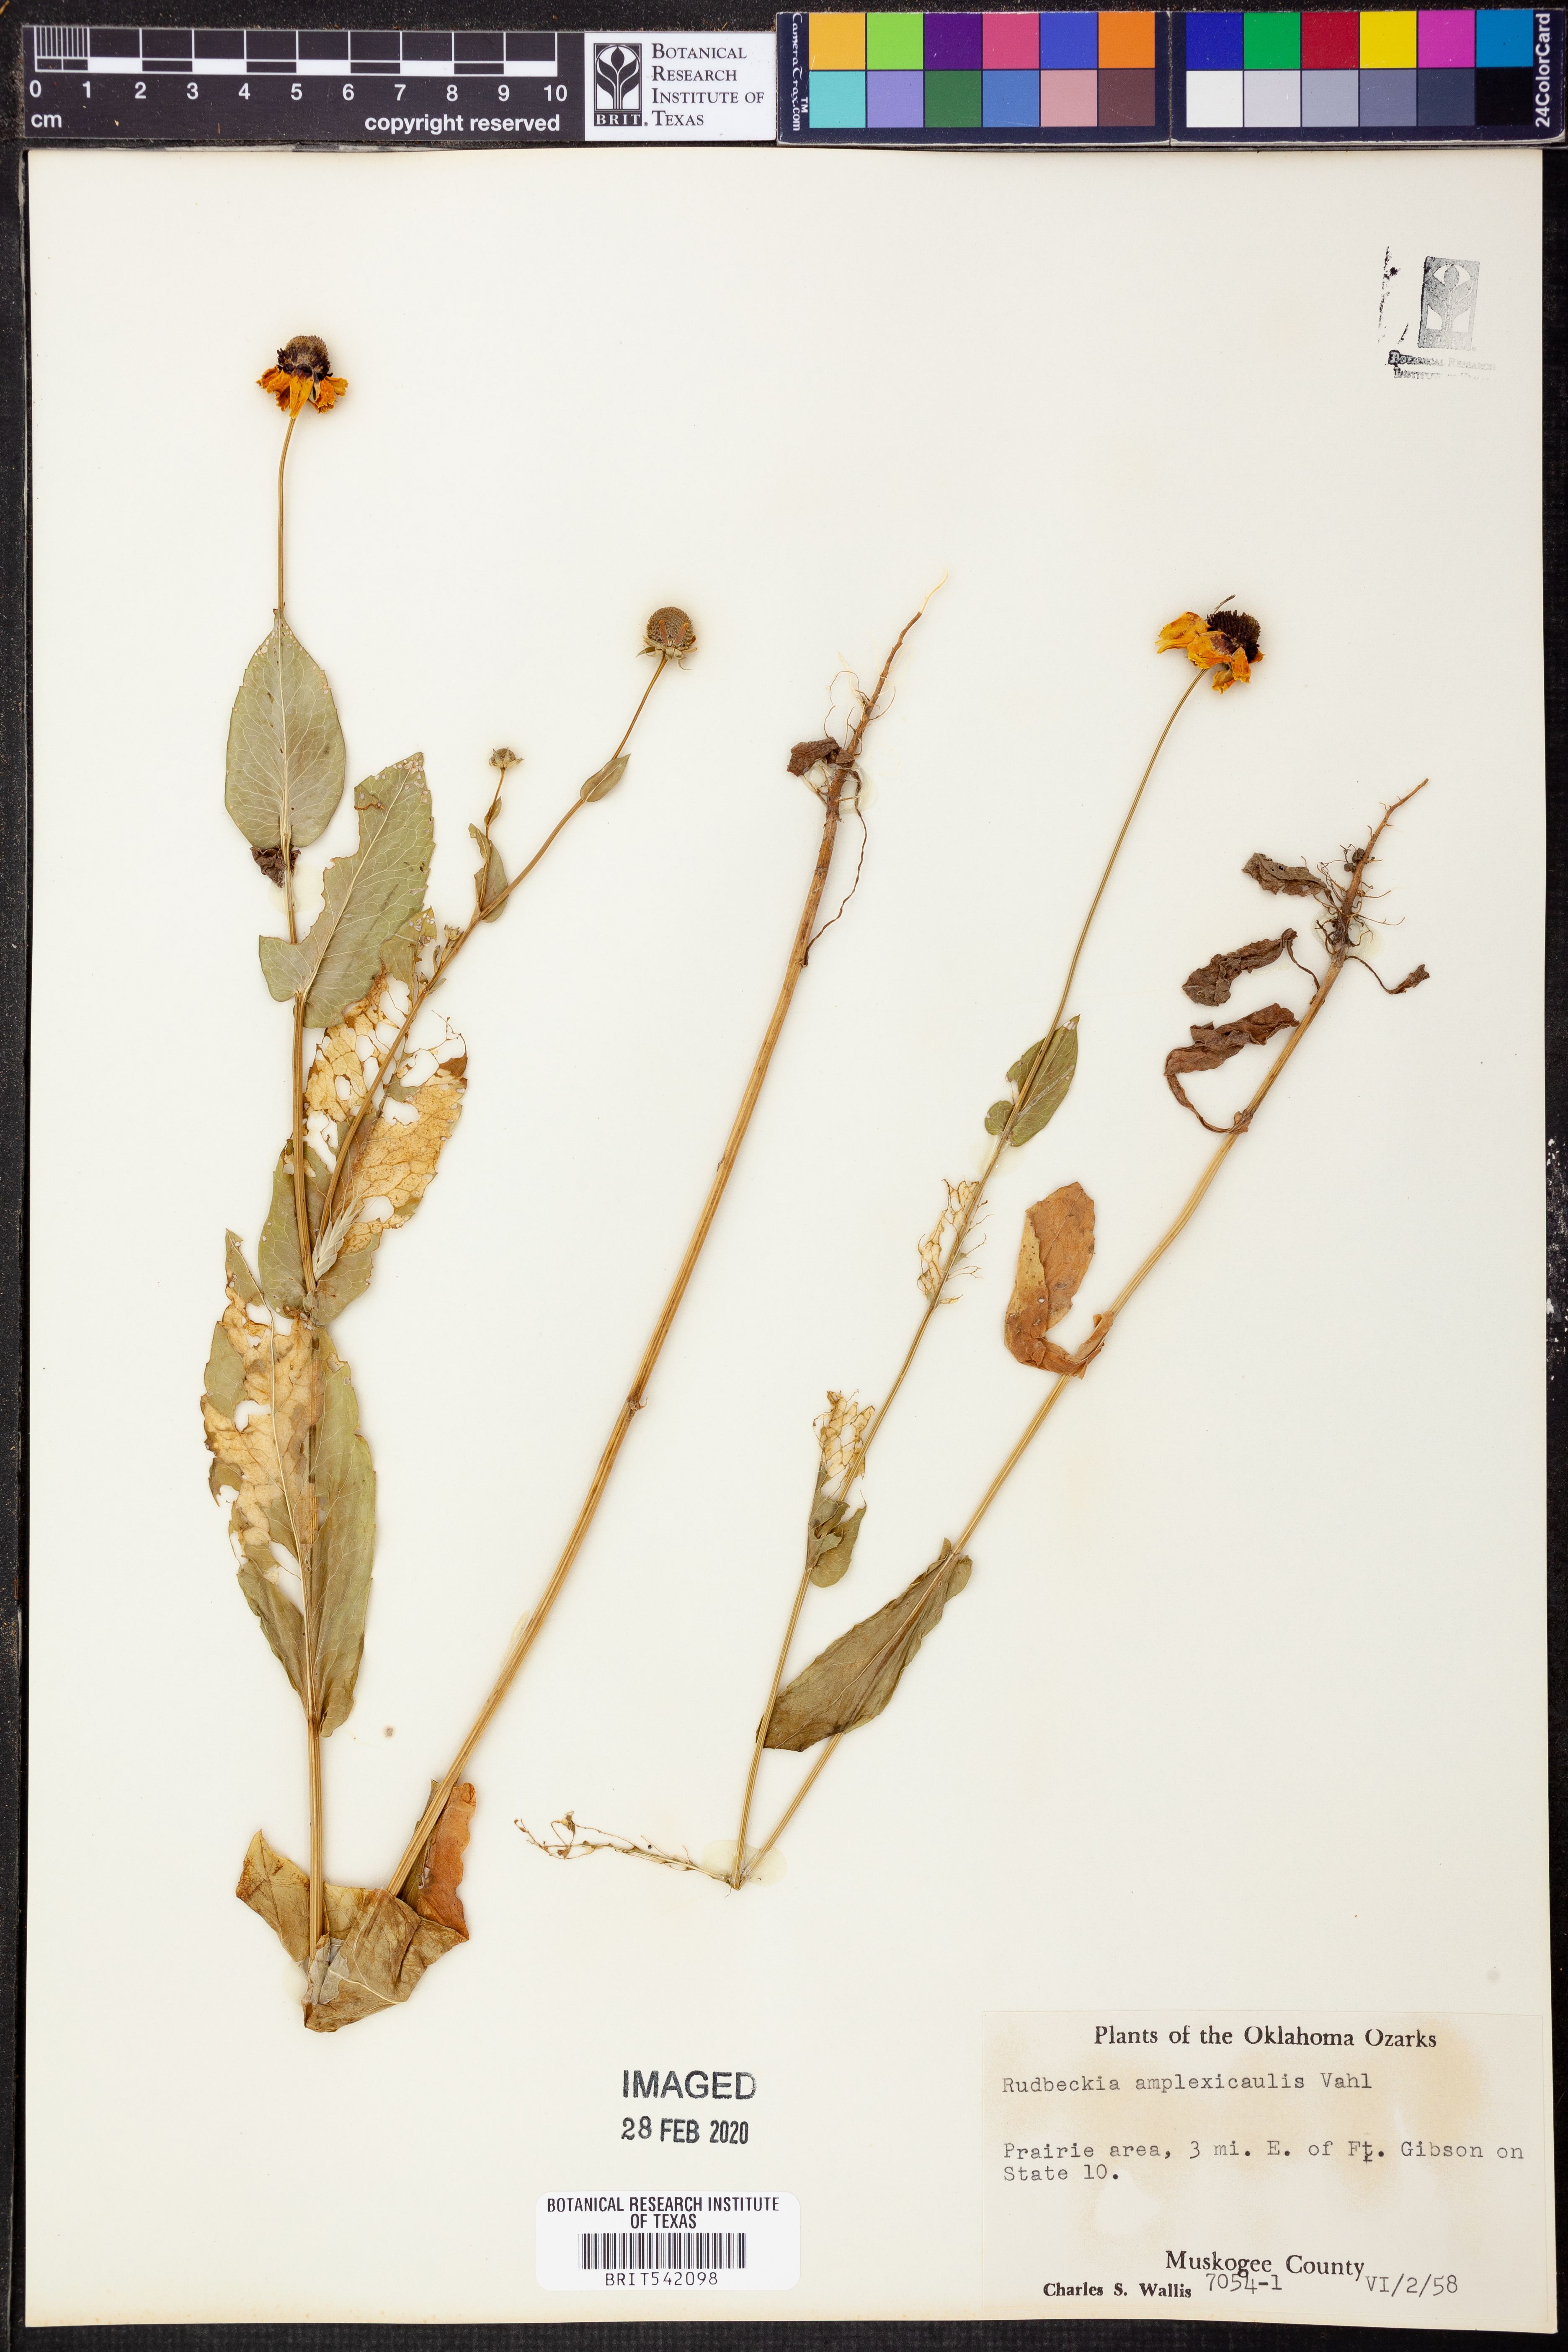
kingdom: Plantae
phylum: Tracheophyta
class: Magnoliopsida
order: Asterales
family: Asteraceae
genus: Rudbeckia
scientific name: Rudbeckia amplexicaulis
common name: Clasping-leaf coneflower
